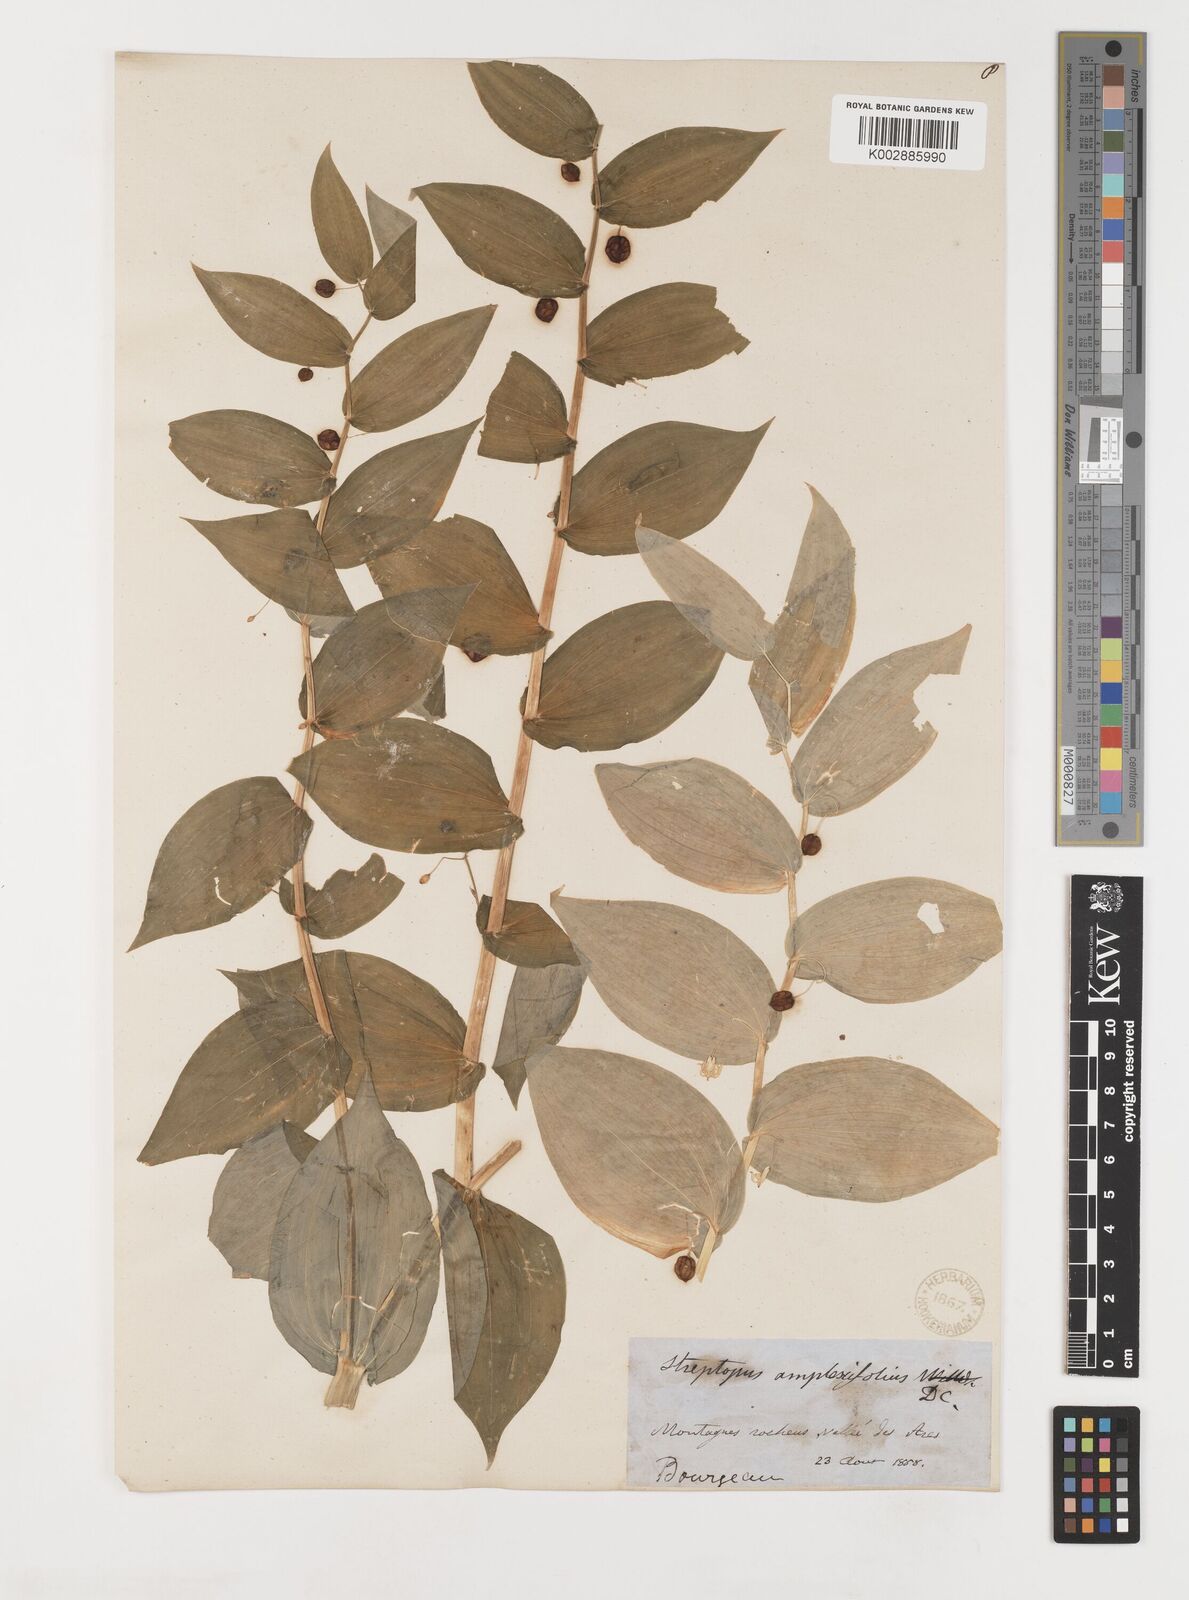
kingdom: Plantae
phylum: Tracheophyta
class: Liliopsida
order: Liliales
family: Liliaceae
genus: Streptopus
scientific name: Streptopus amplexifolius
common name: Clasp twisted stalk
